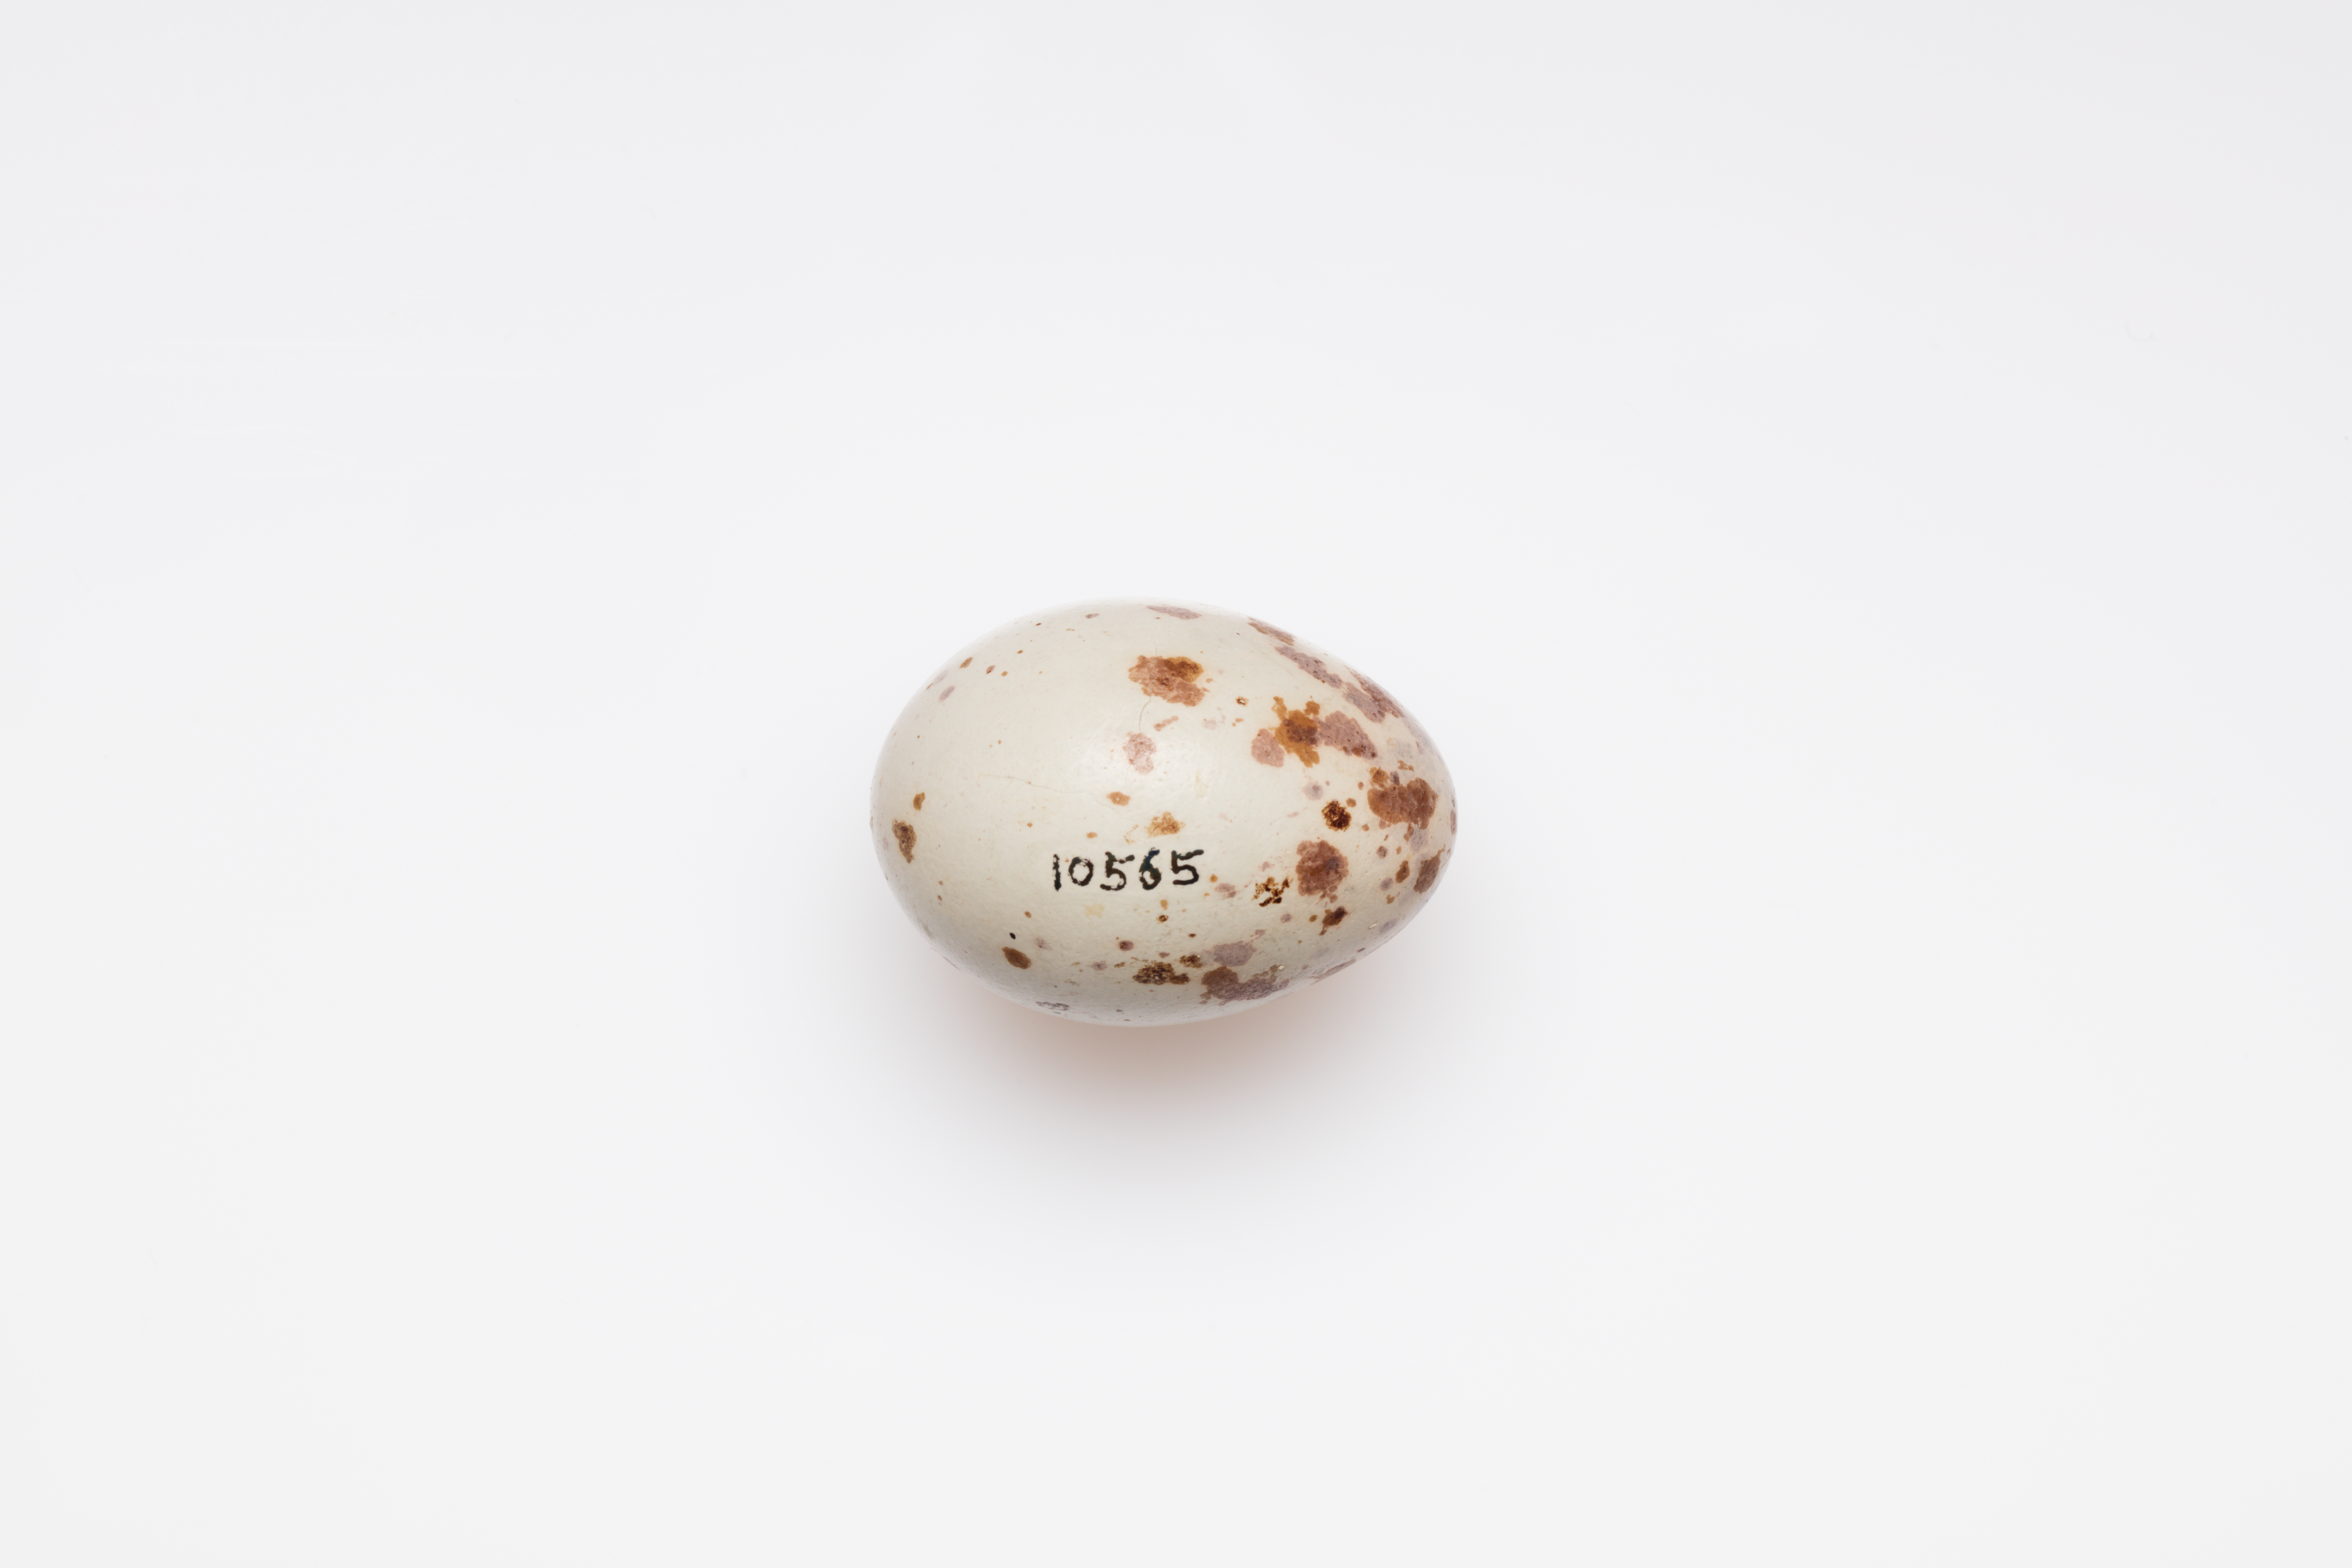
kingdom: Animalia
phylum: Chordata
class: Aves
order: Passeriformes
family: Turdidae
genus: Turdus
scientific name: Turdus viscivorus
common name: Mistle thrush
